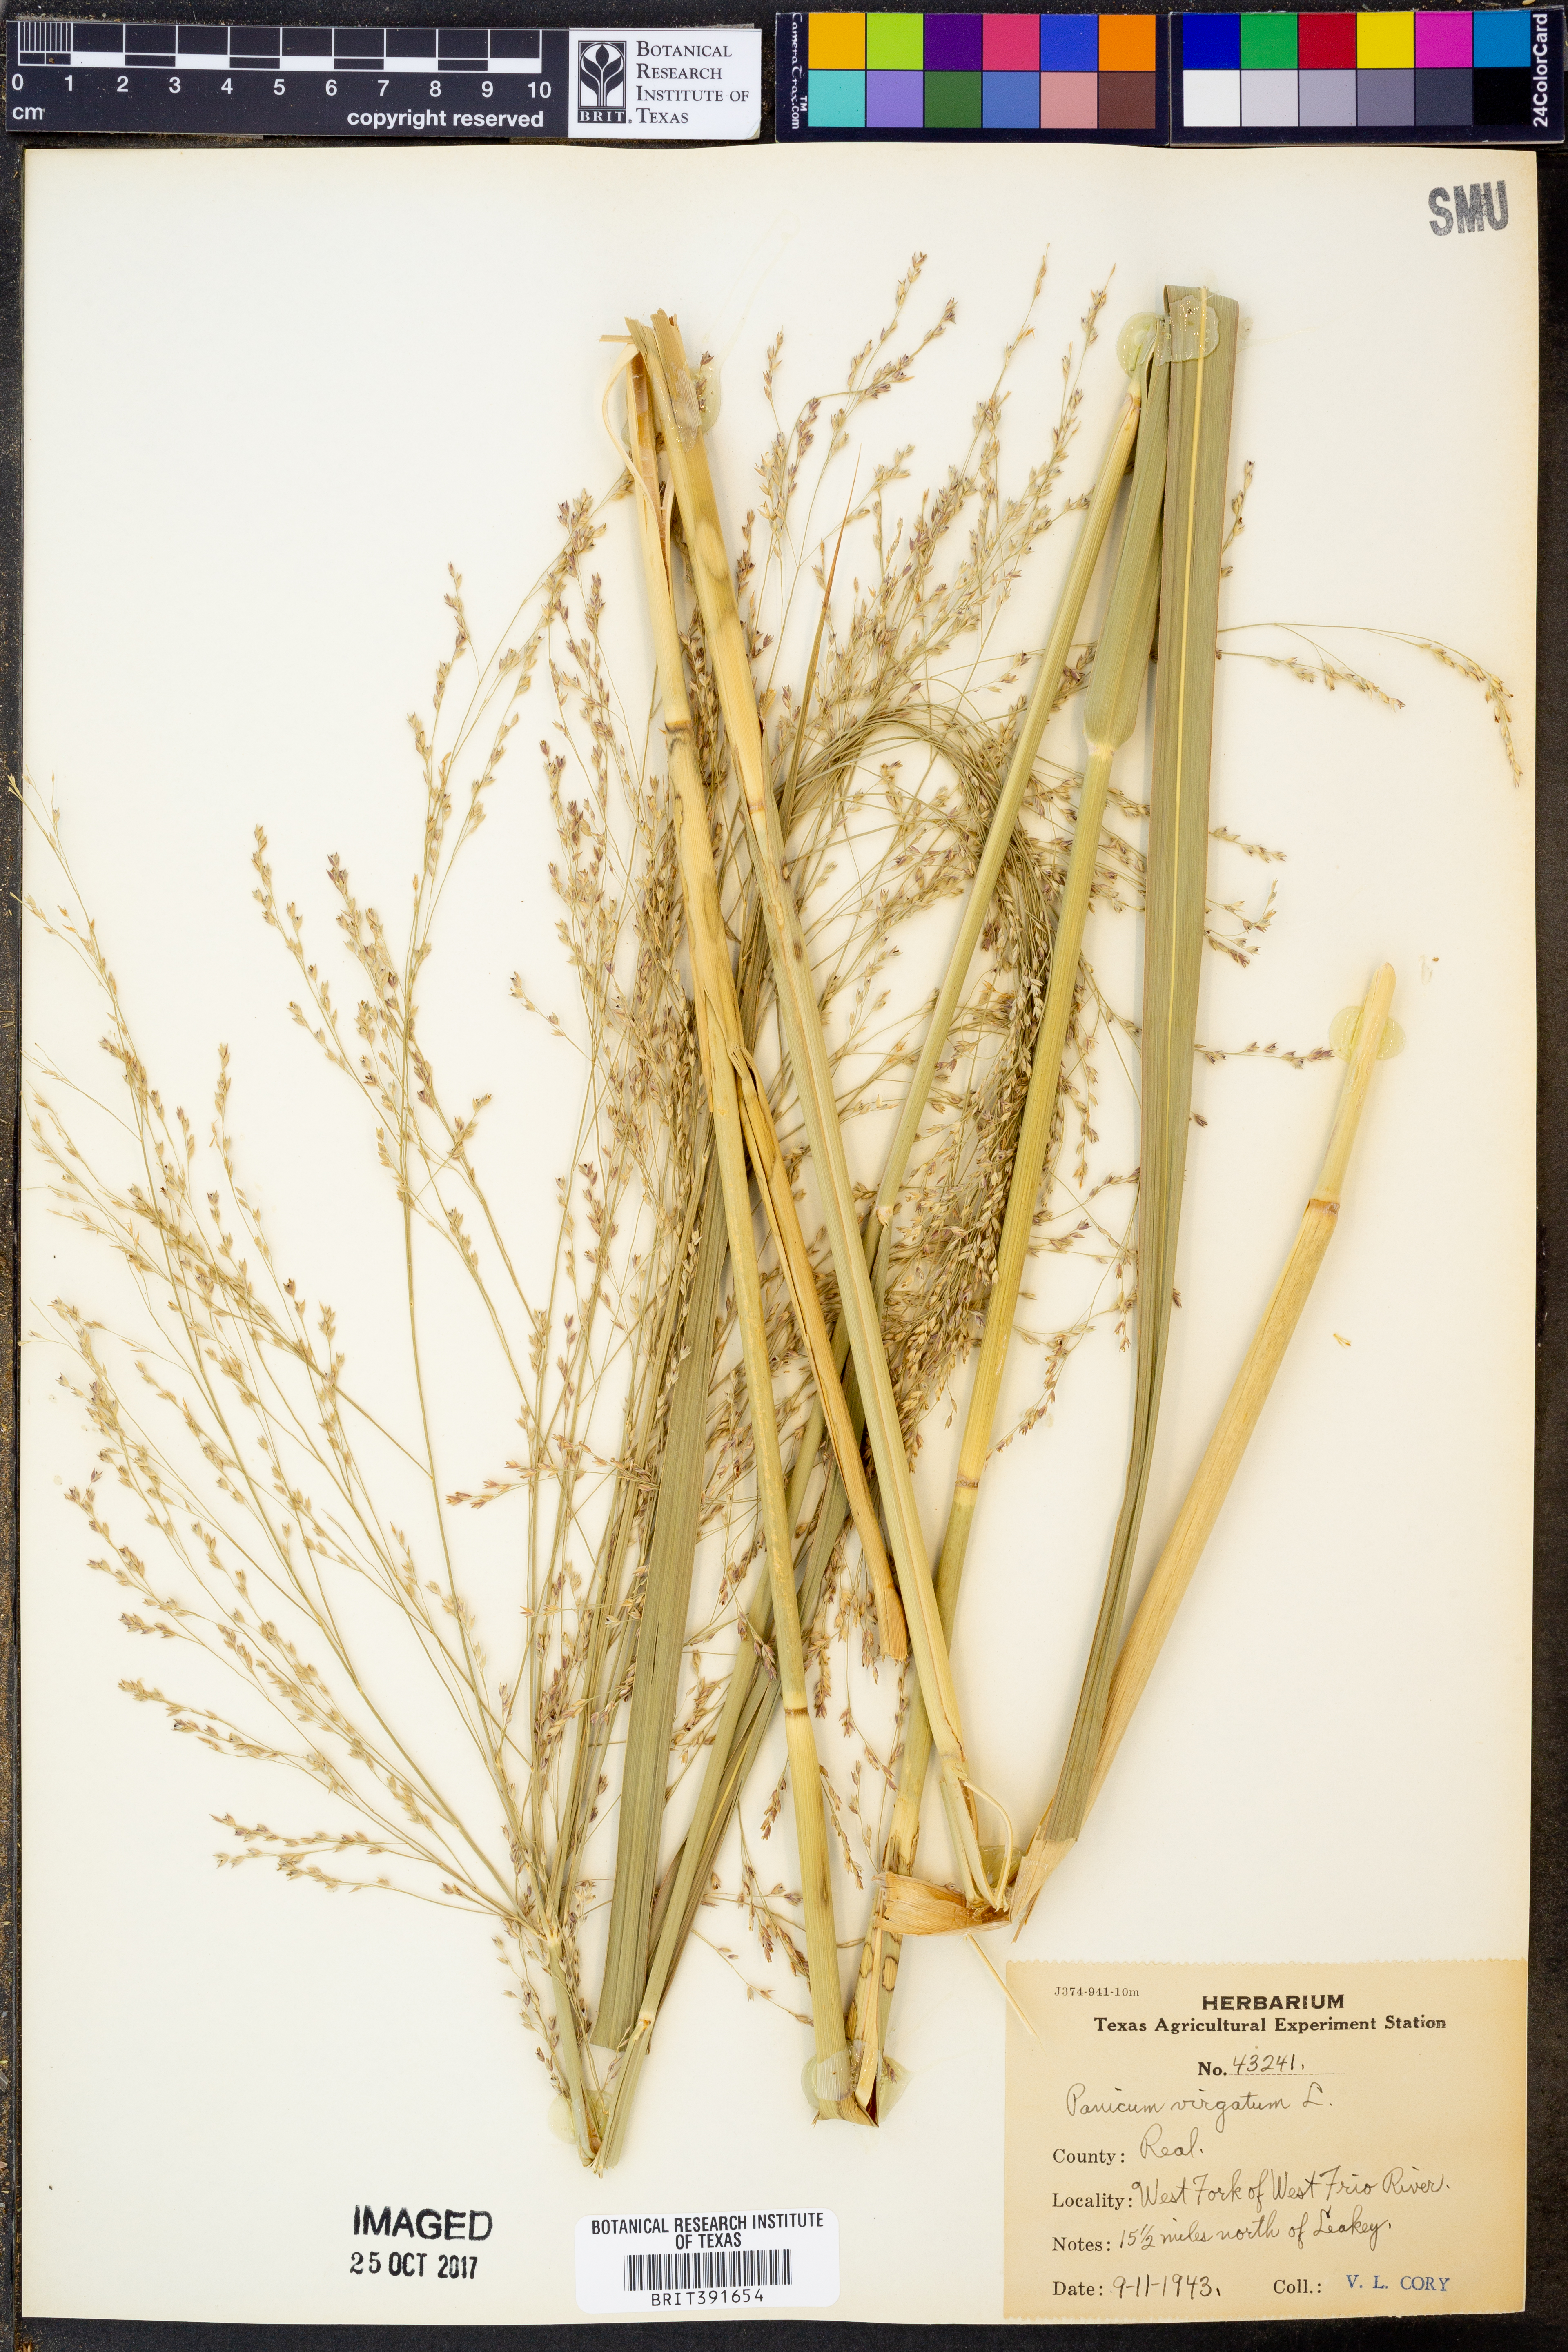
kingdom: Plantae
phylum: Tracheophyta
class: Liliopsida
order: Poales
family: Poaceae
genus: Panicum
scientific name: Panicum virgatum
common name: Switchgrass
